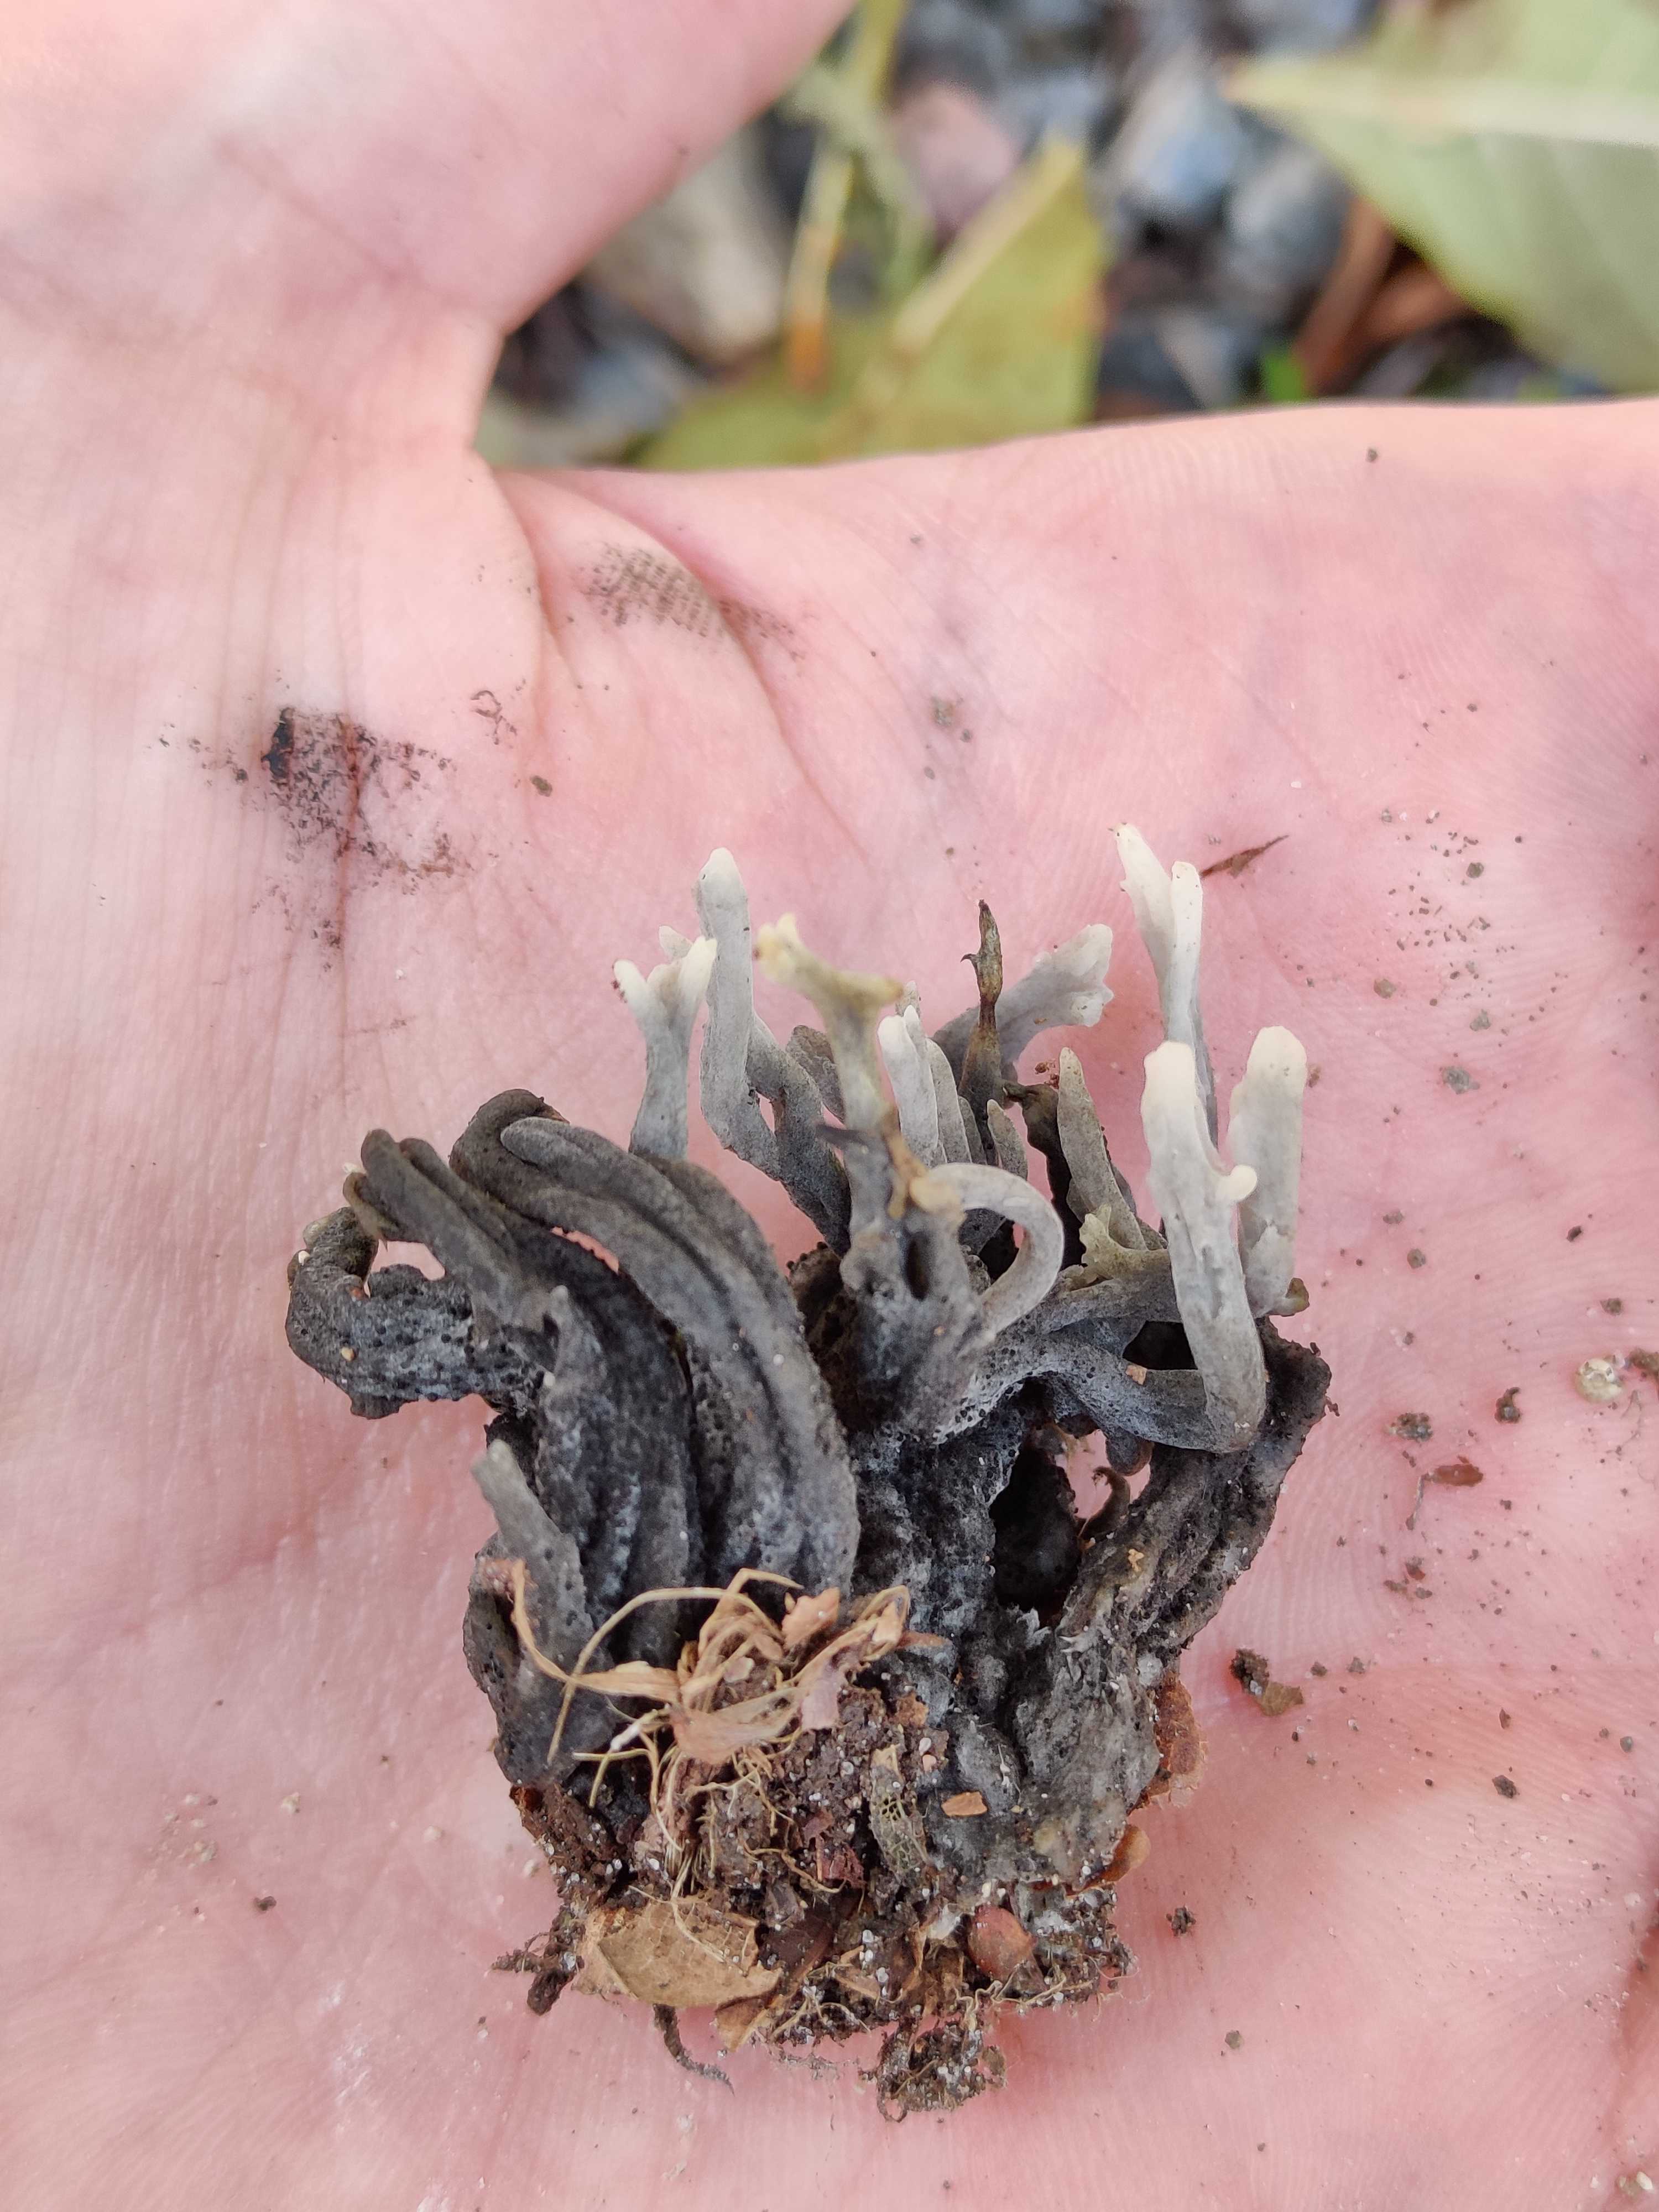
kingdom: Fungi
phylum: Ascomycota
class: Sordariomycetes
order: Sordariales
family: Helminthosphaeriaceae
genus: Helminthosphaeria
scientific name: Helminthosphaeria clavariarum
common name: trold-svampesnyltekerne
